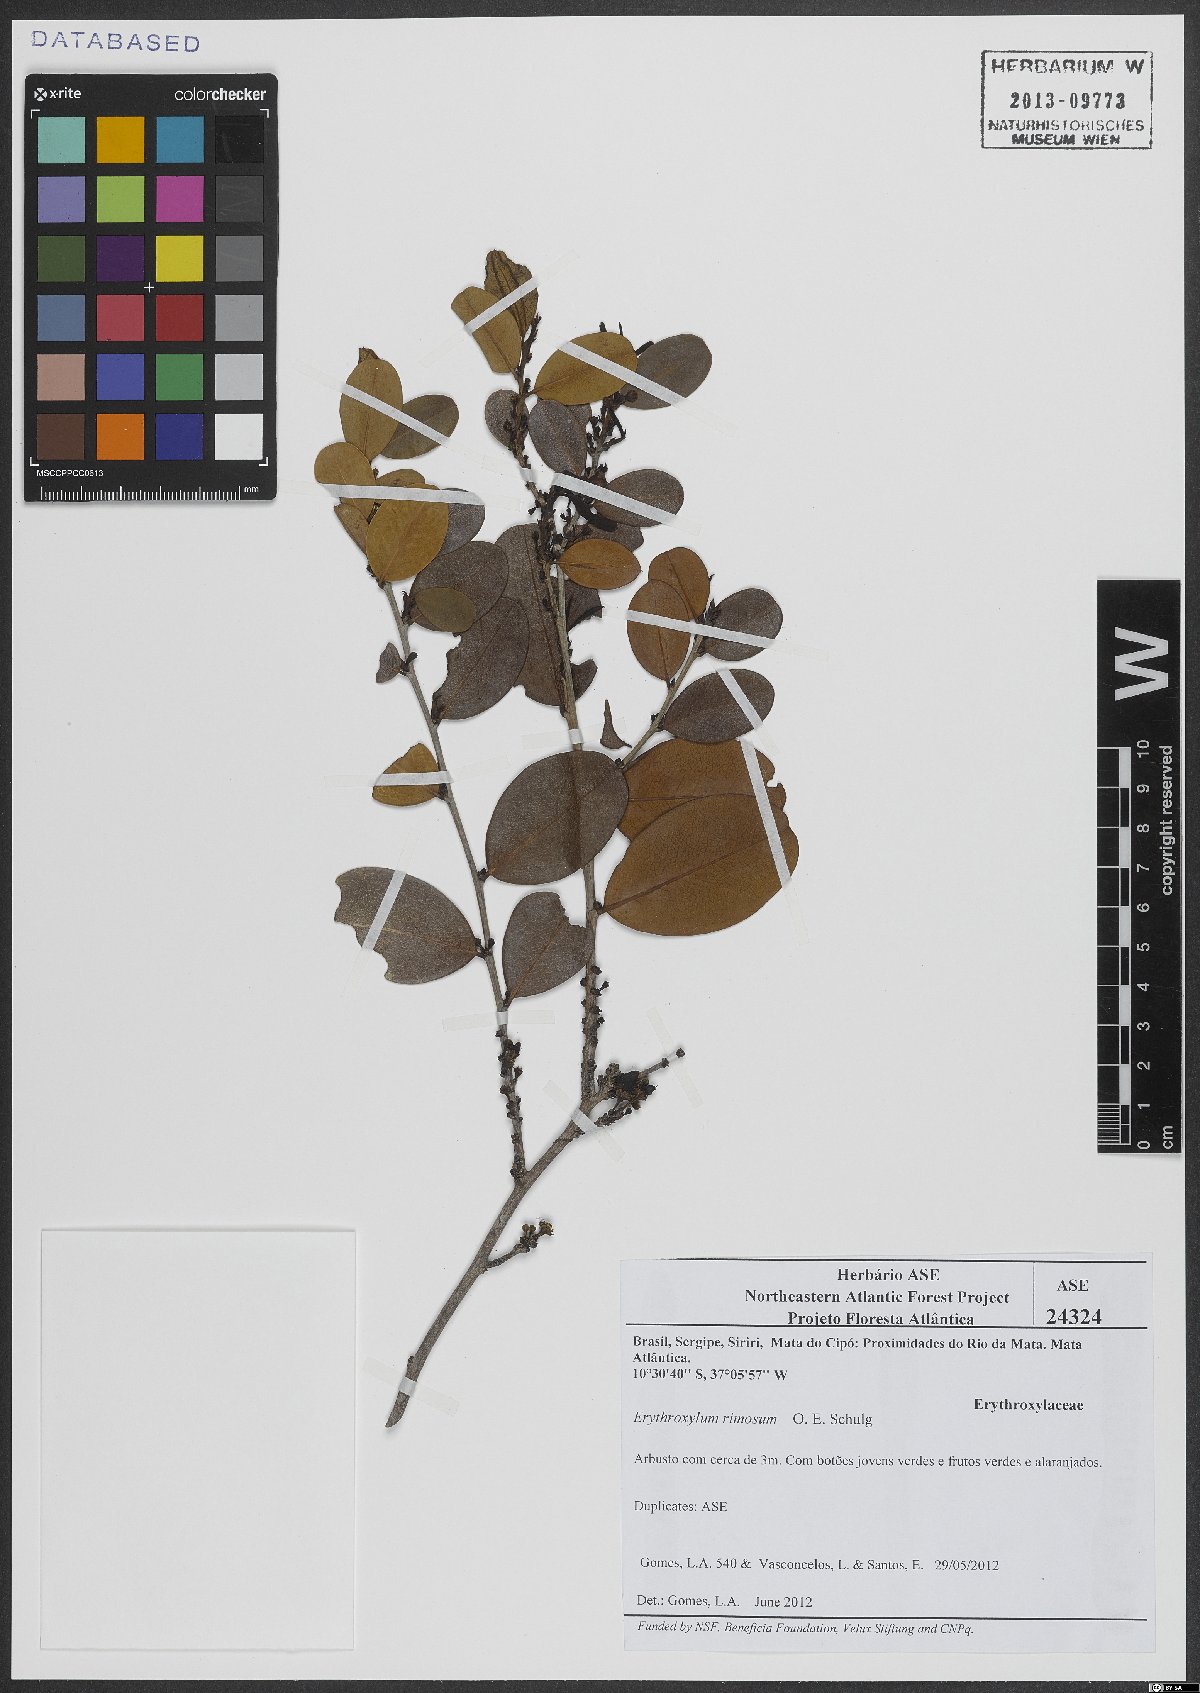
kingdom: Plantae
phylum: Tracheophyta
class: Magnoliopsida
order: Malpighiales
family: Erythroxylaceae
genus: Erythroxylum
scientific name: Erythroxylum rimosum
